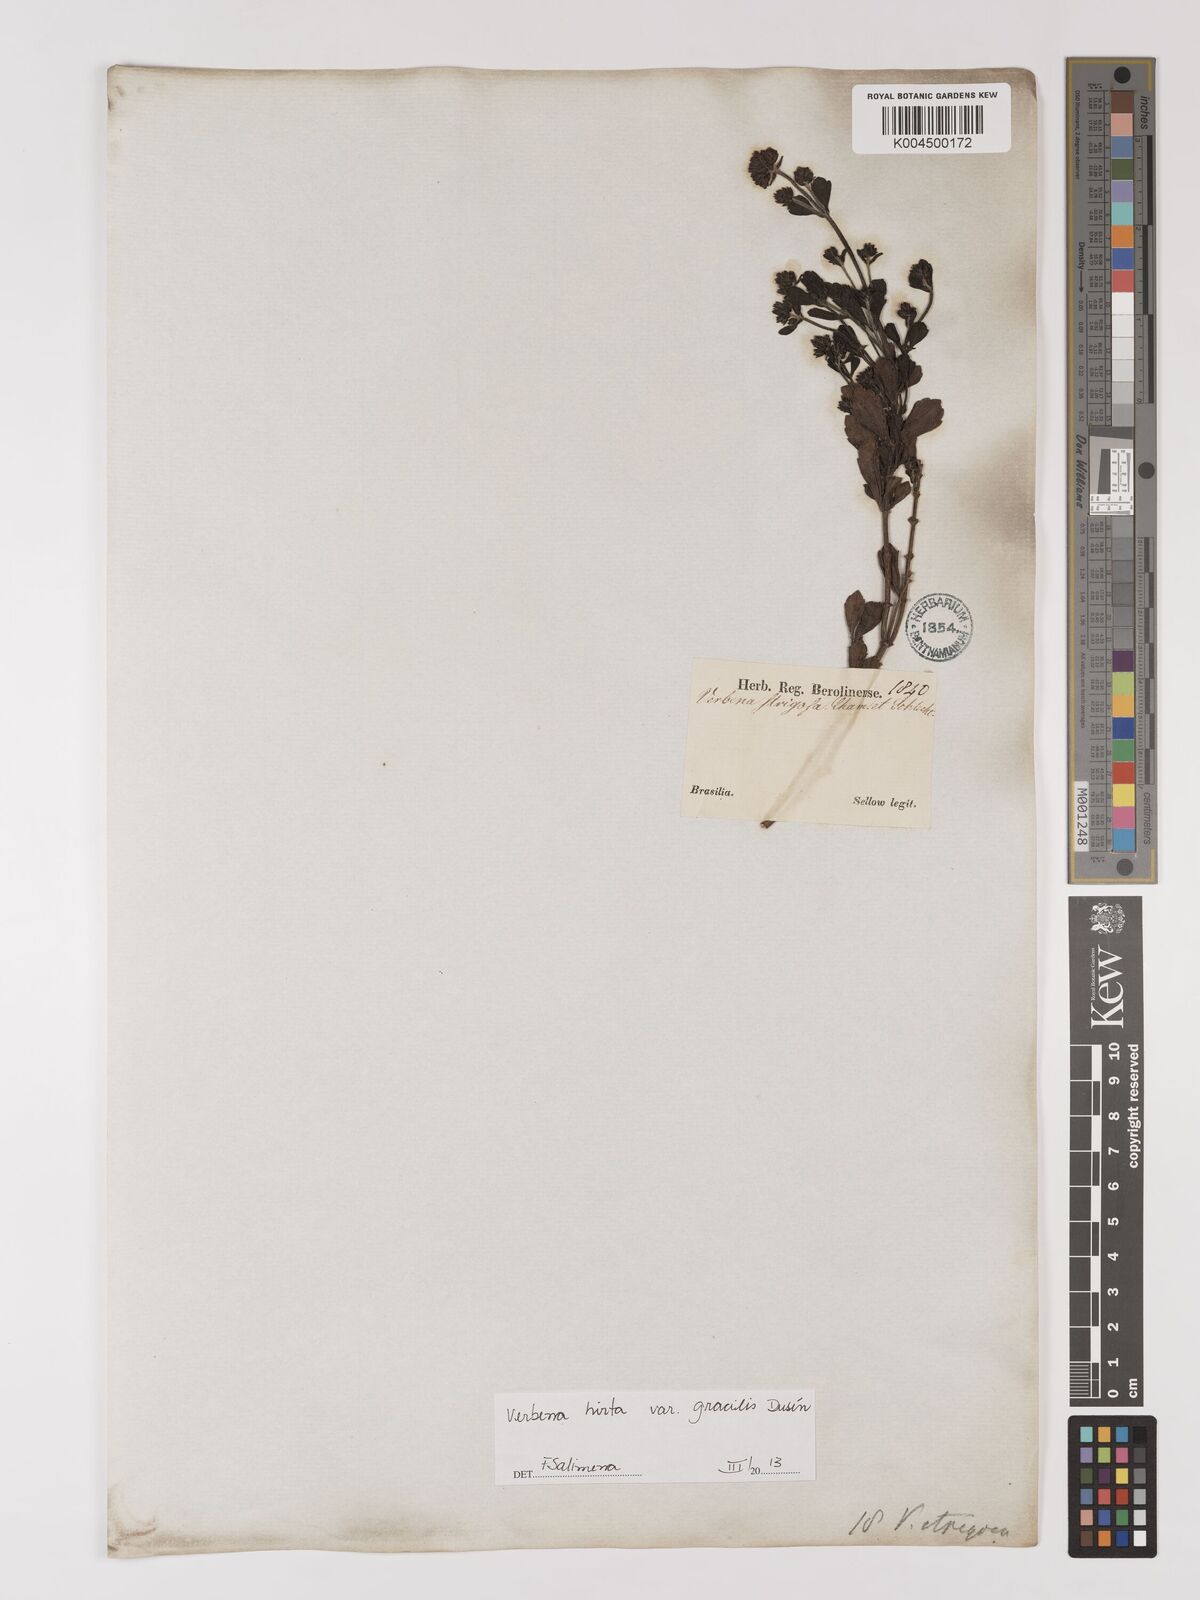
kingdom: Plantae
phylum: Tracheophyta
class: Magnoliopsida
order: Lamiales
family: Verbenaceae
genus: Verbena
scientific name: Verbena hirta
